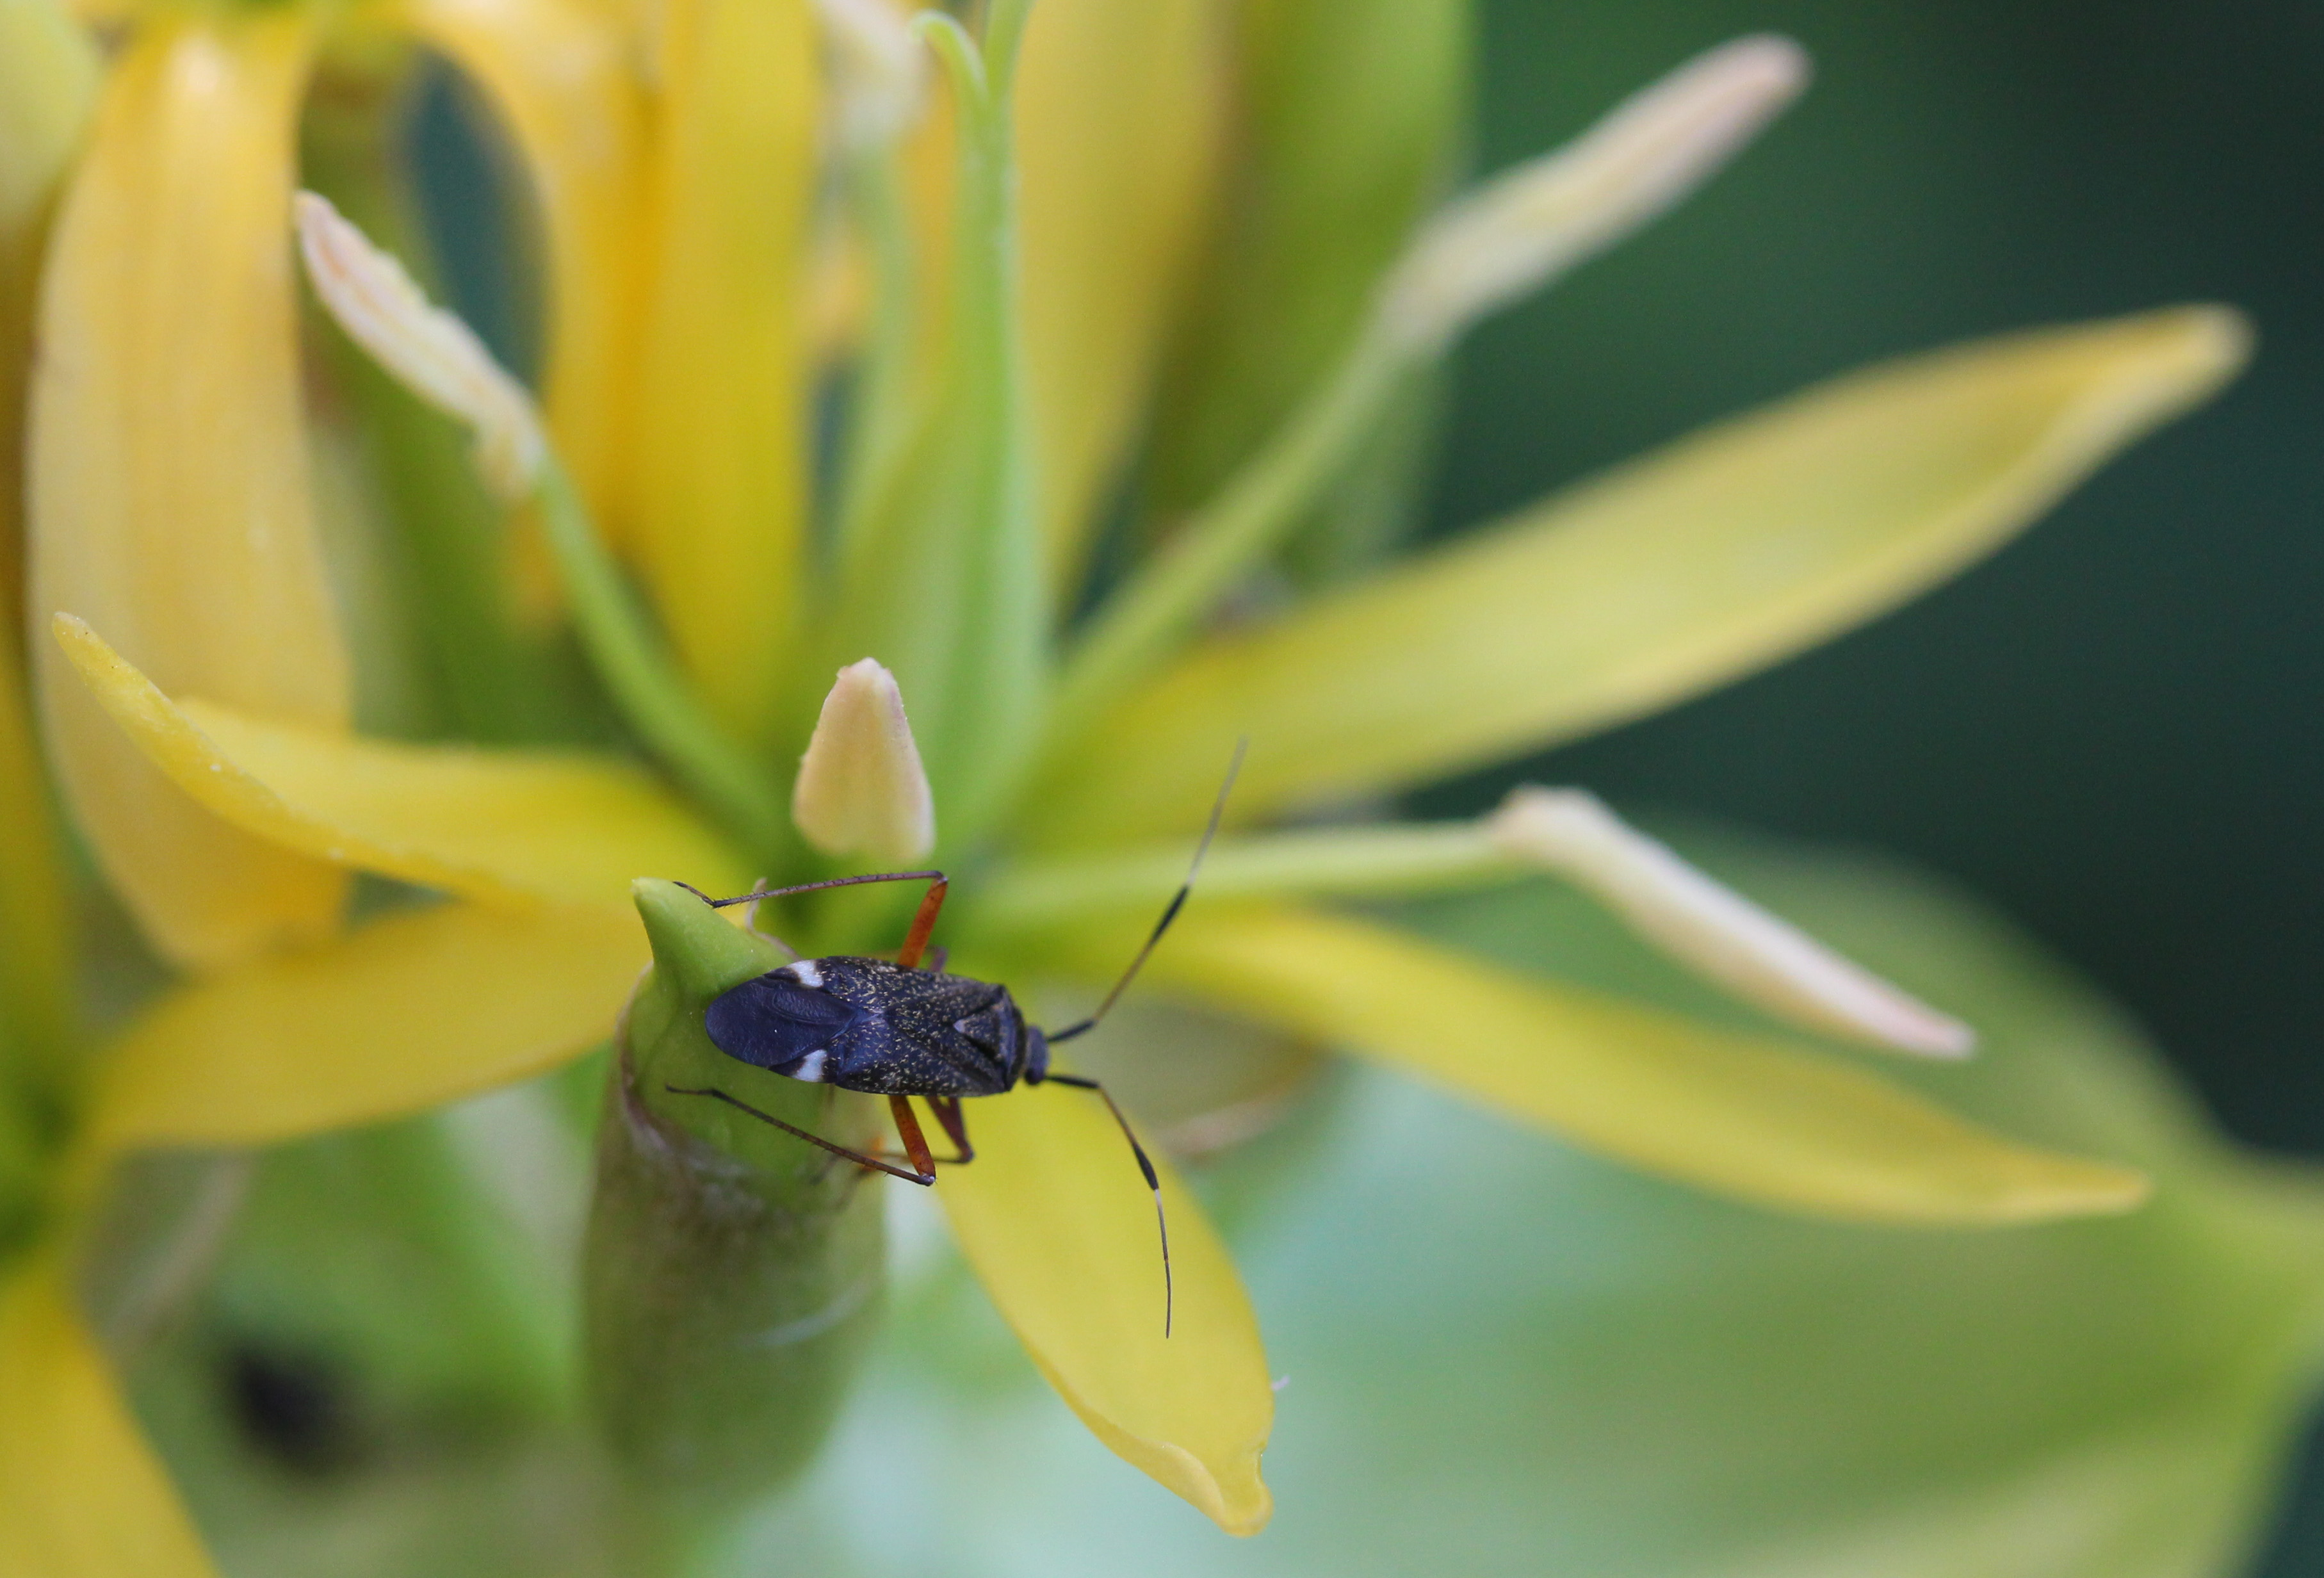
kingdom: Animalia
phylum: Arthropoda
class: Insecta
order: Hemiptera
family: Miridae
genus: Closterotomus
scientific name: Closterotomus biclavatus
